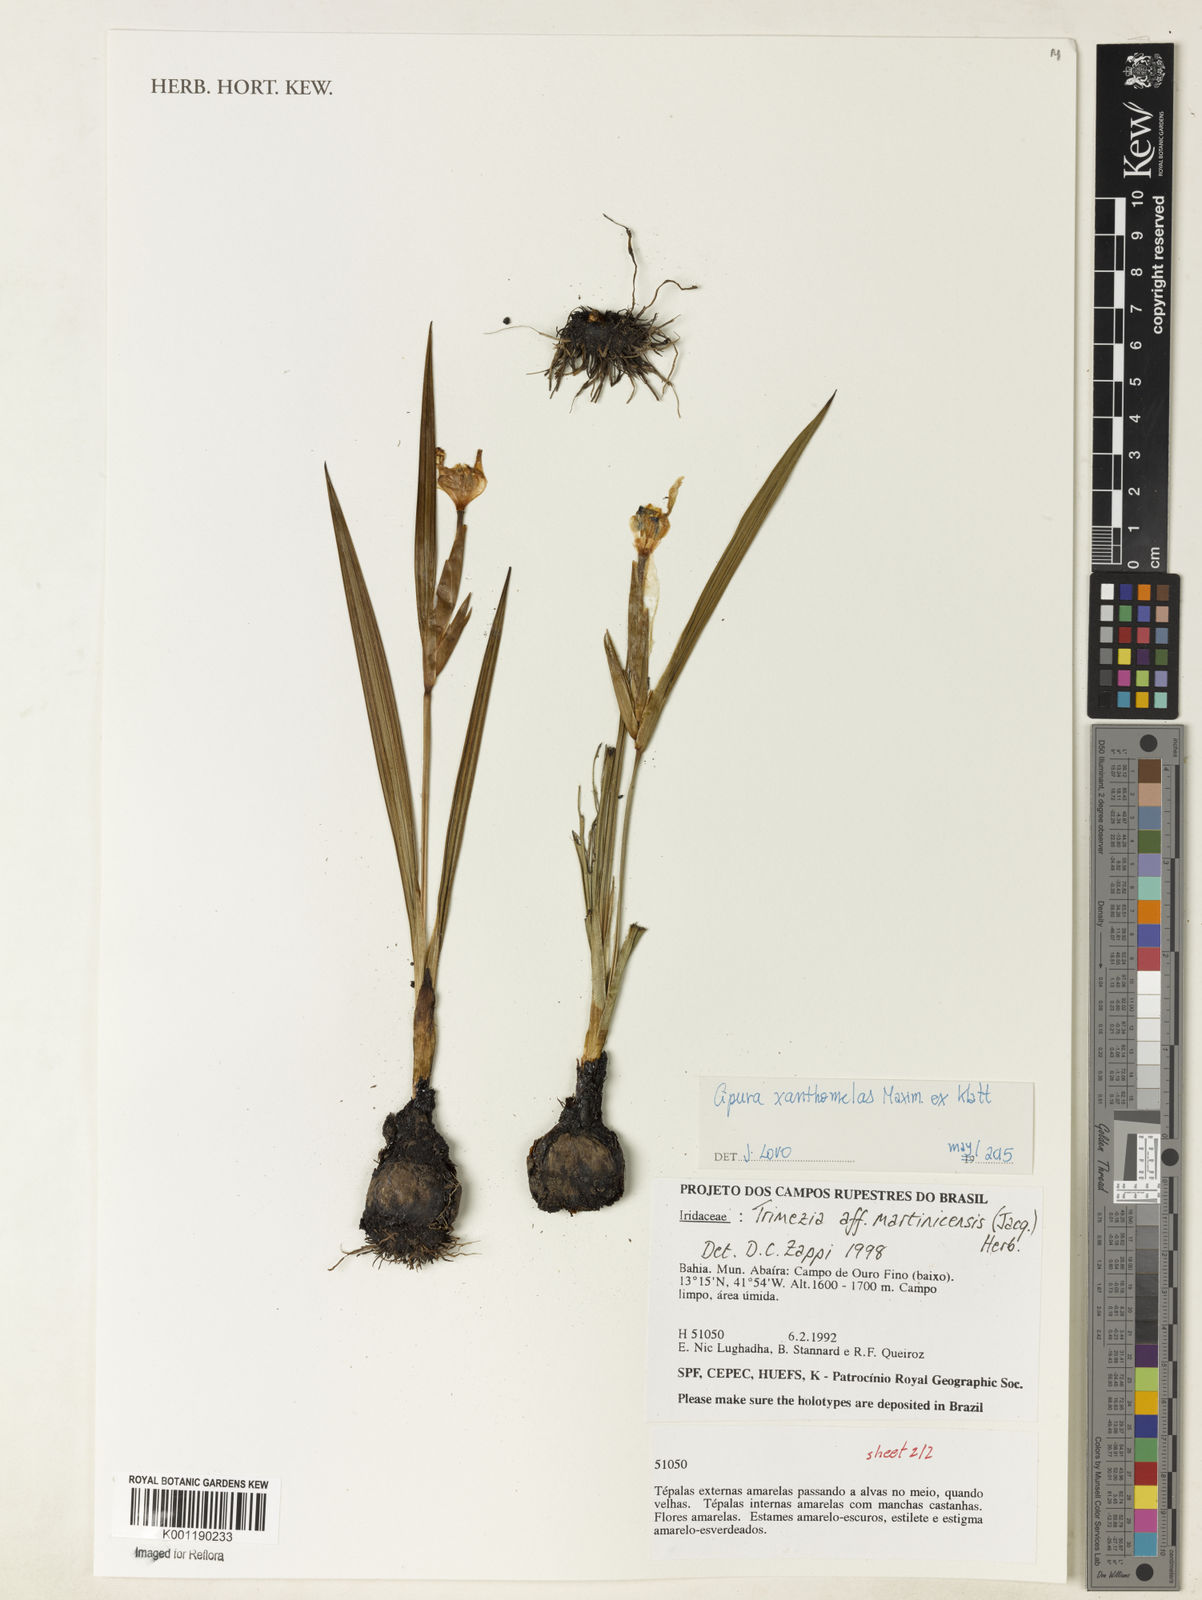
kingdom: Plantae
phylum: Tracheophyta
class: Liliopsida
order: Asparagales
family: Iridaceae
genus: Trimezia
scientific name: Trimezia martinicensis
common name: Martinique trimezia
